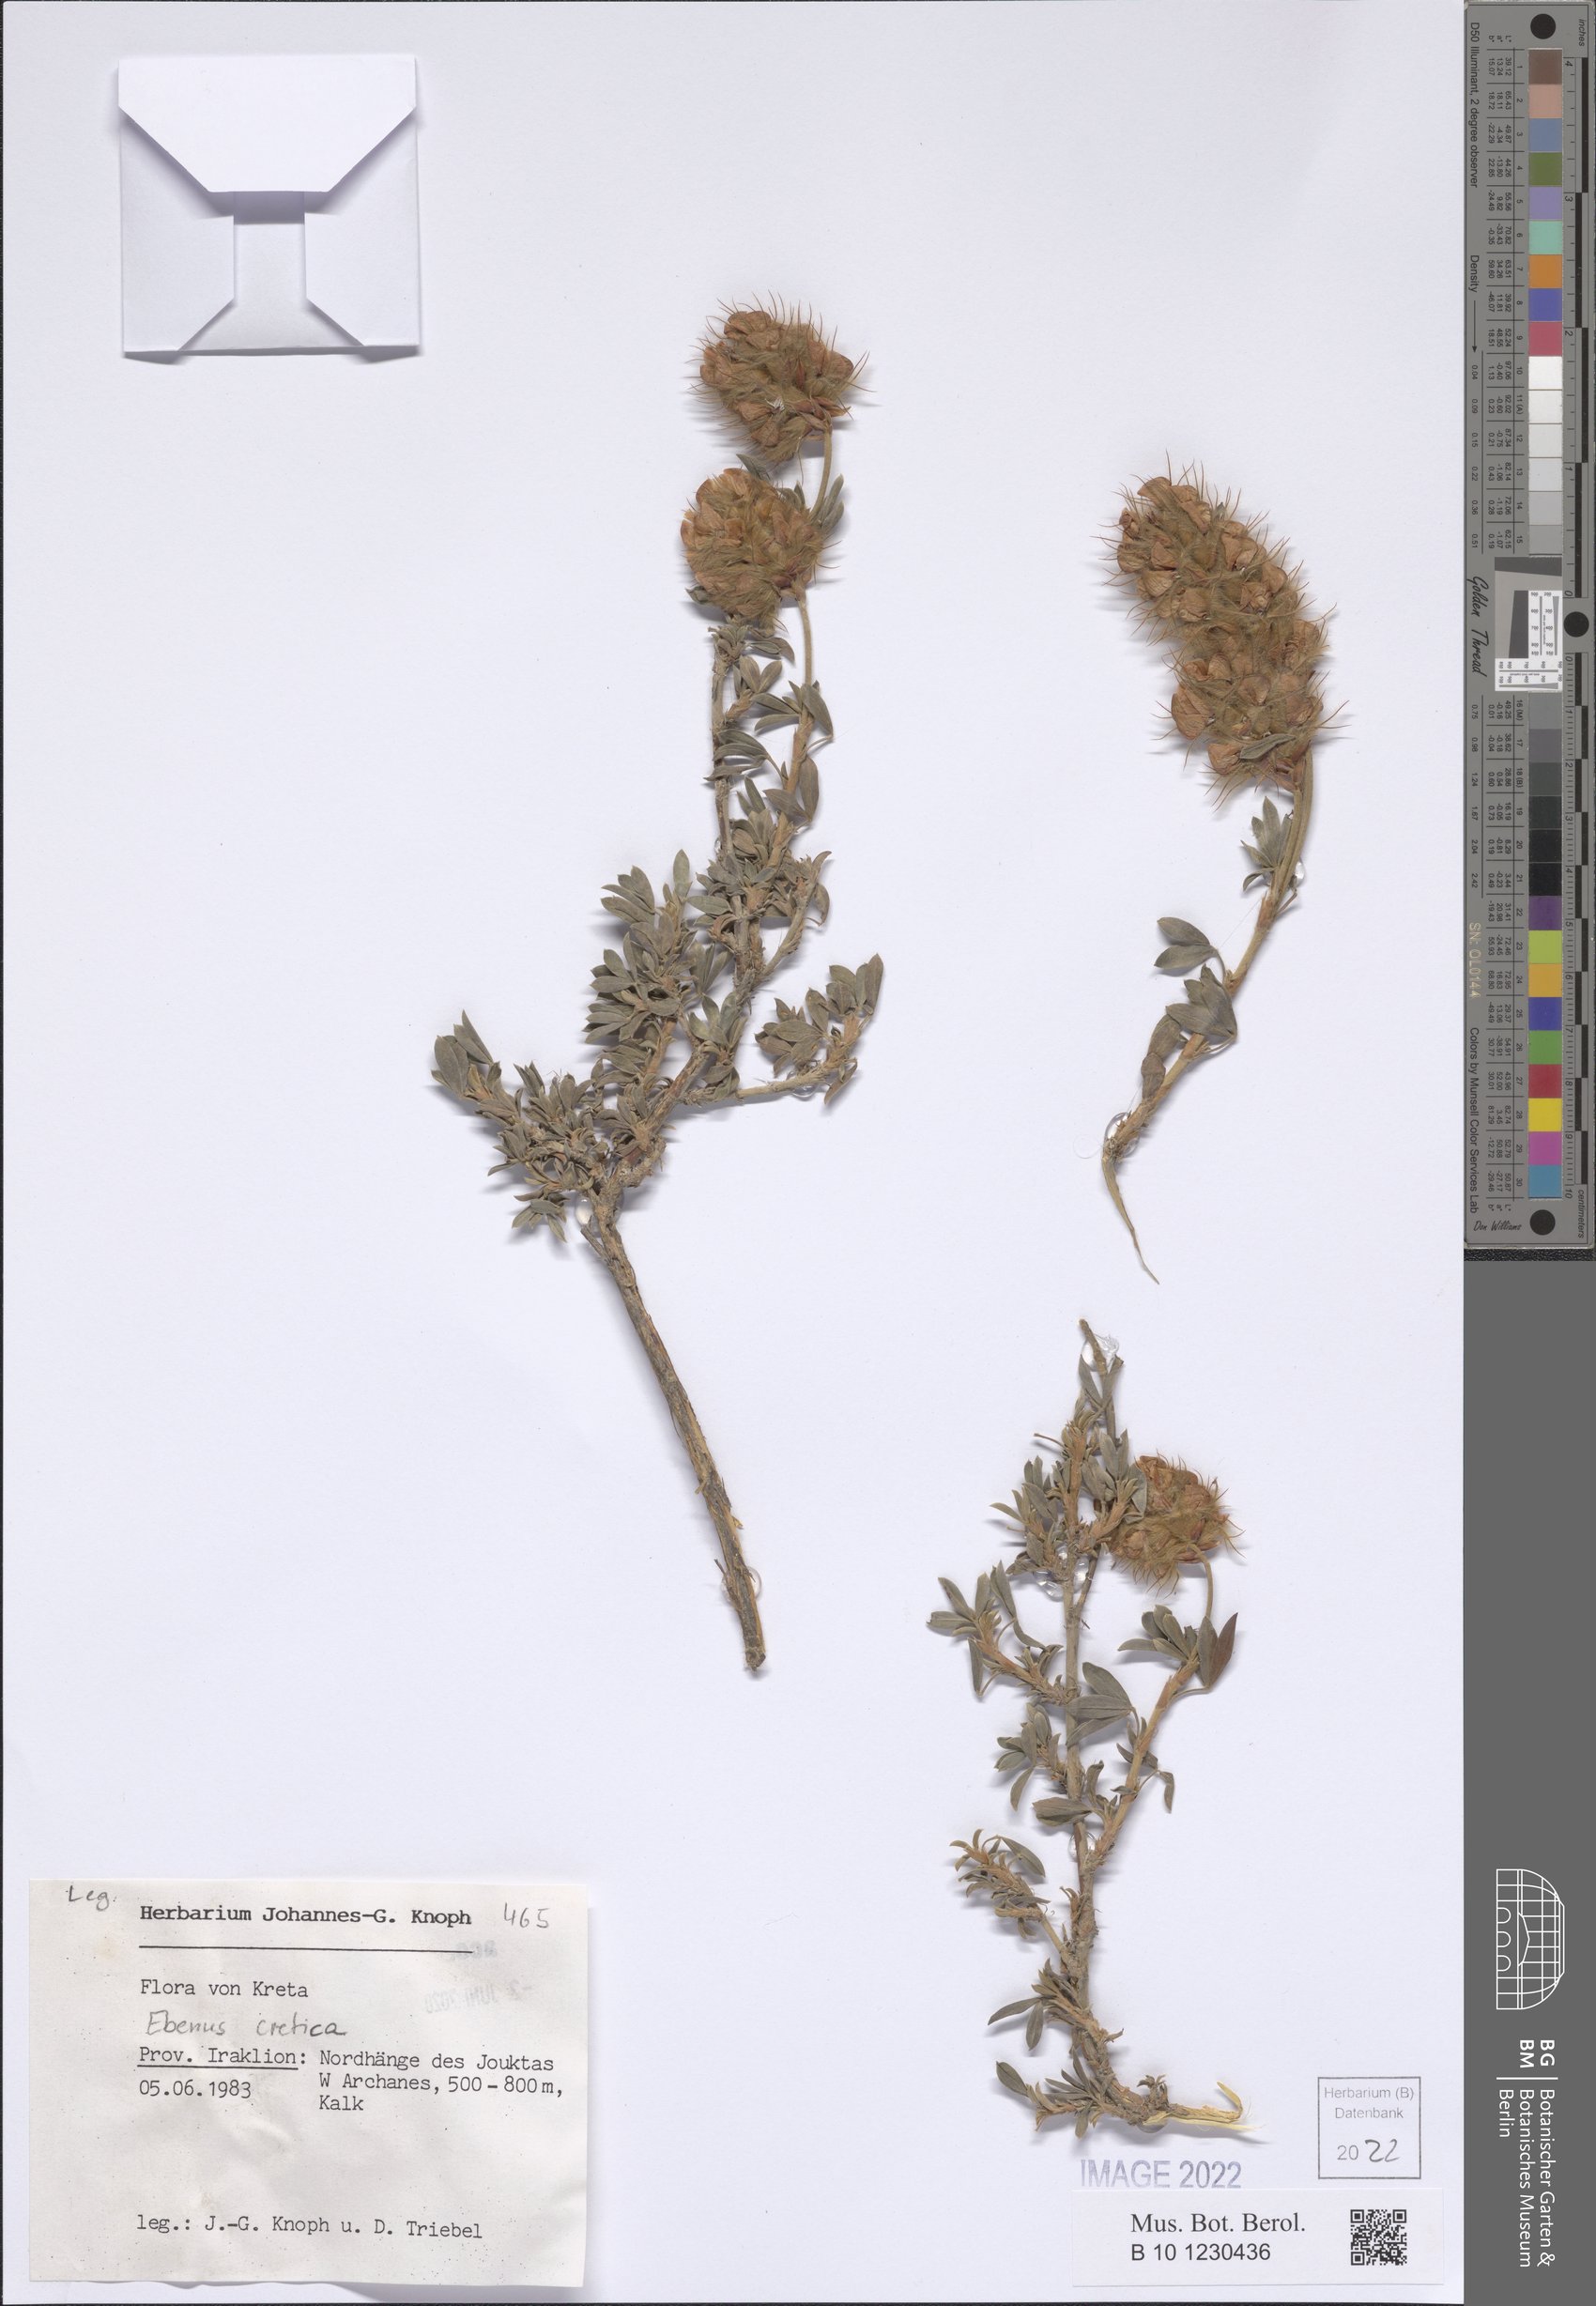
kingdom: Plantae
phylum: Tracheophyta
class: Magnoliopsida
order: Fabales
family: Fabaceae
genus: Ebenus
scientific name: Ebenus cretica
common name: Cretan silver bush
